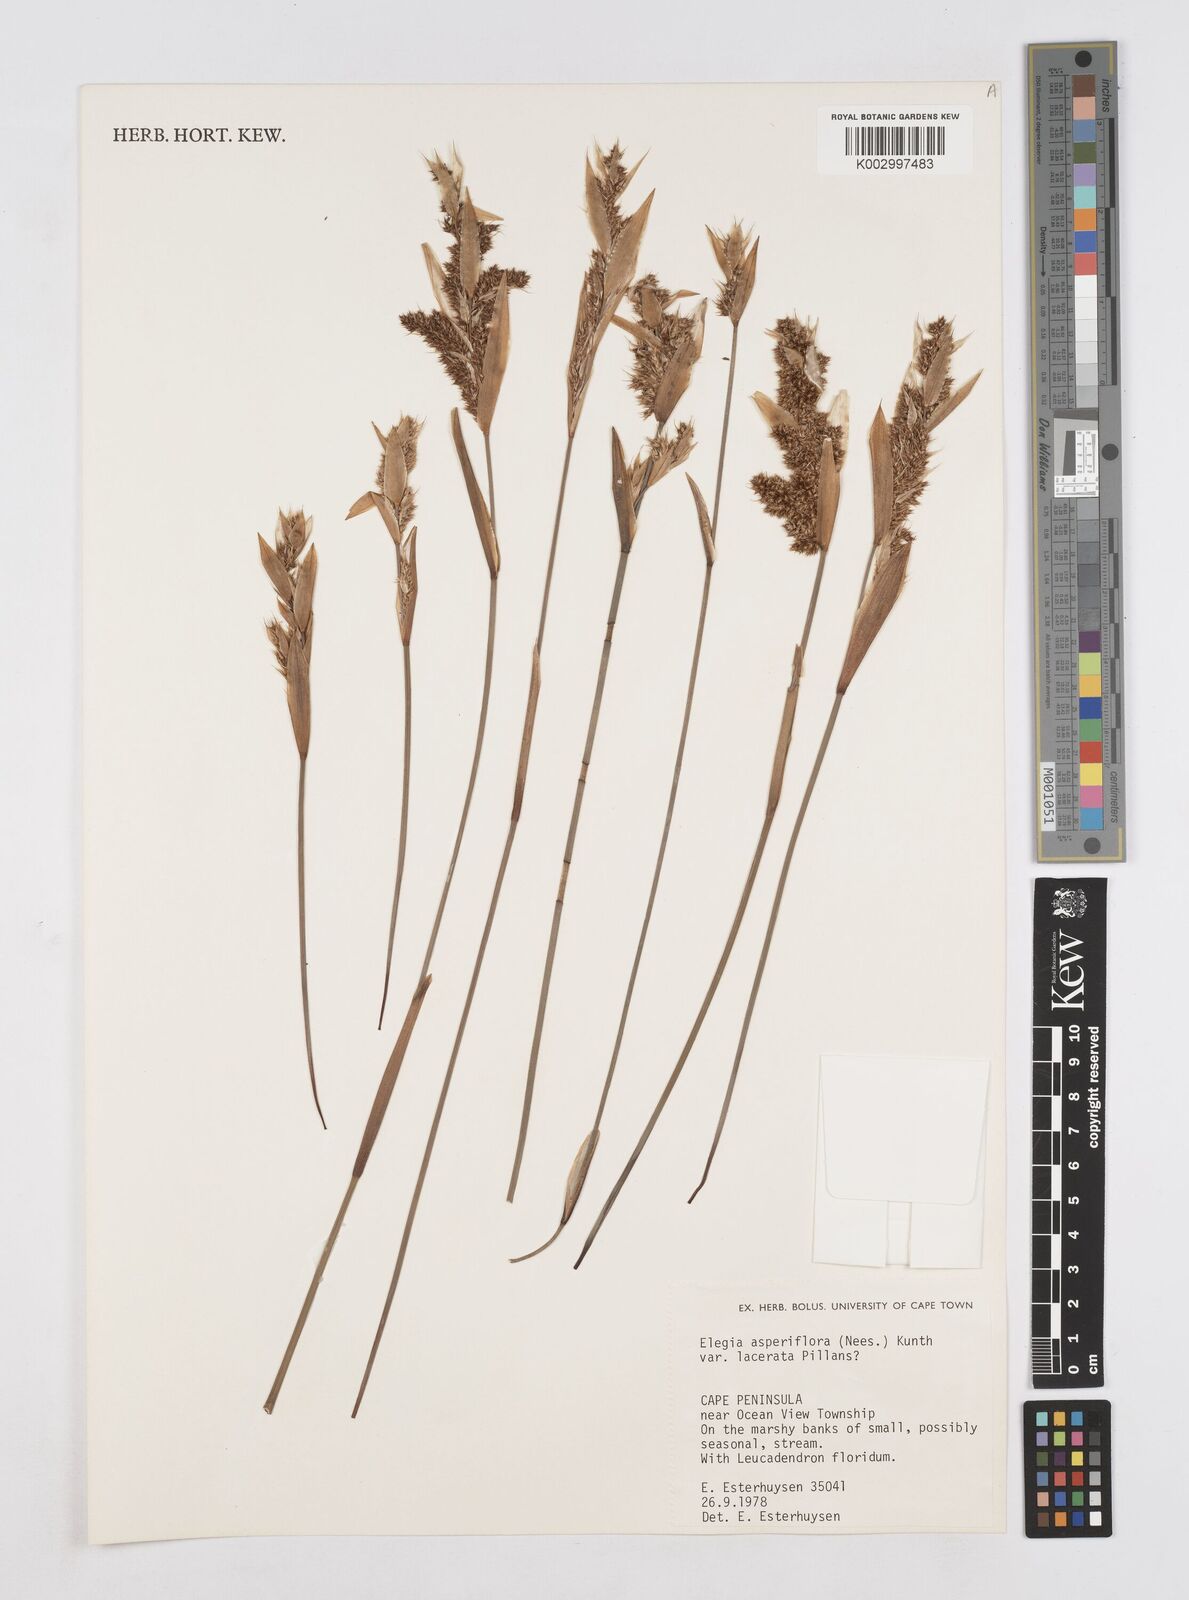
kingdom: Plantae
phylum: Tracheophyta
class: Liliopsida
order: Poales
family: Restionaceae
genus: Elegia
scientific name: Elegia asperiflora
